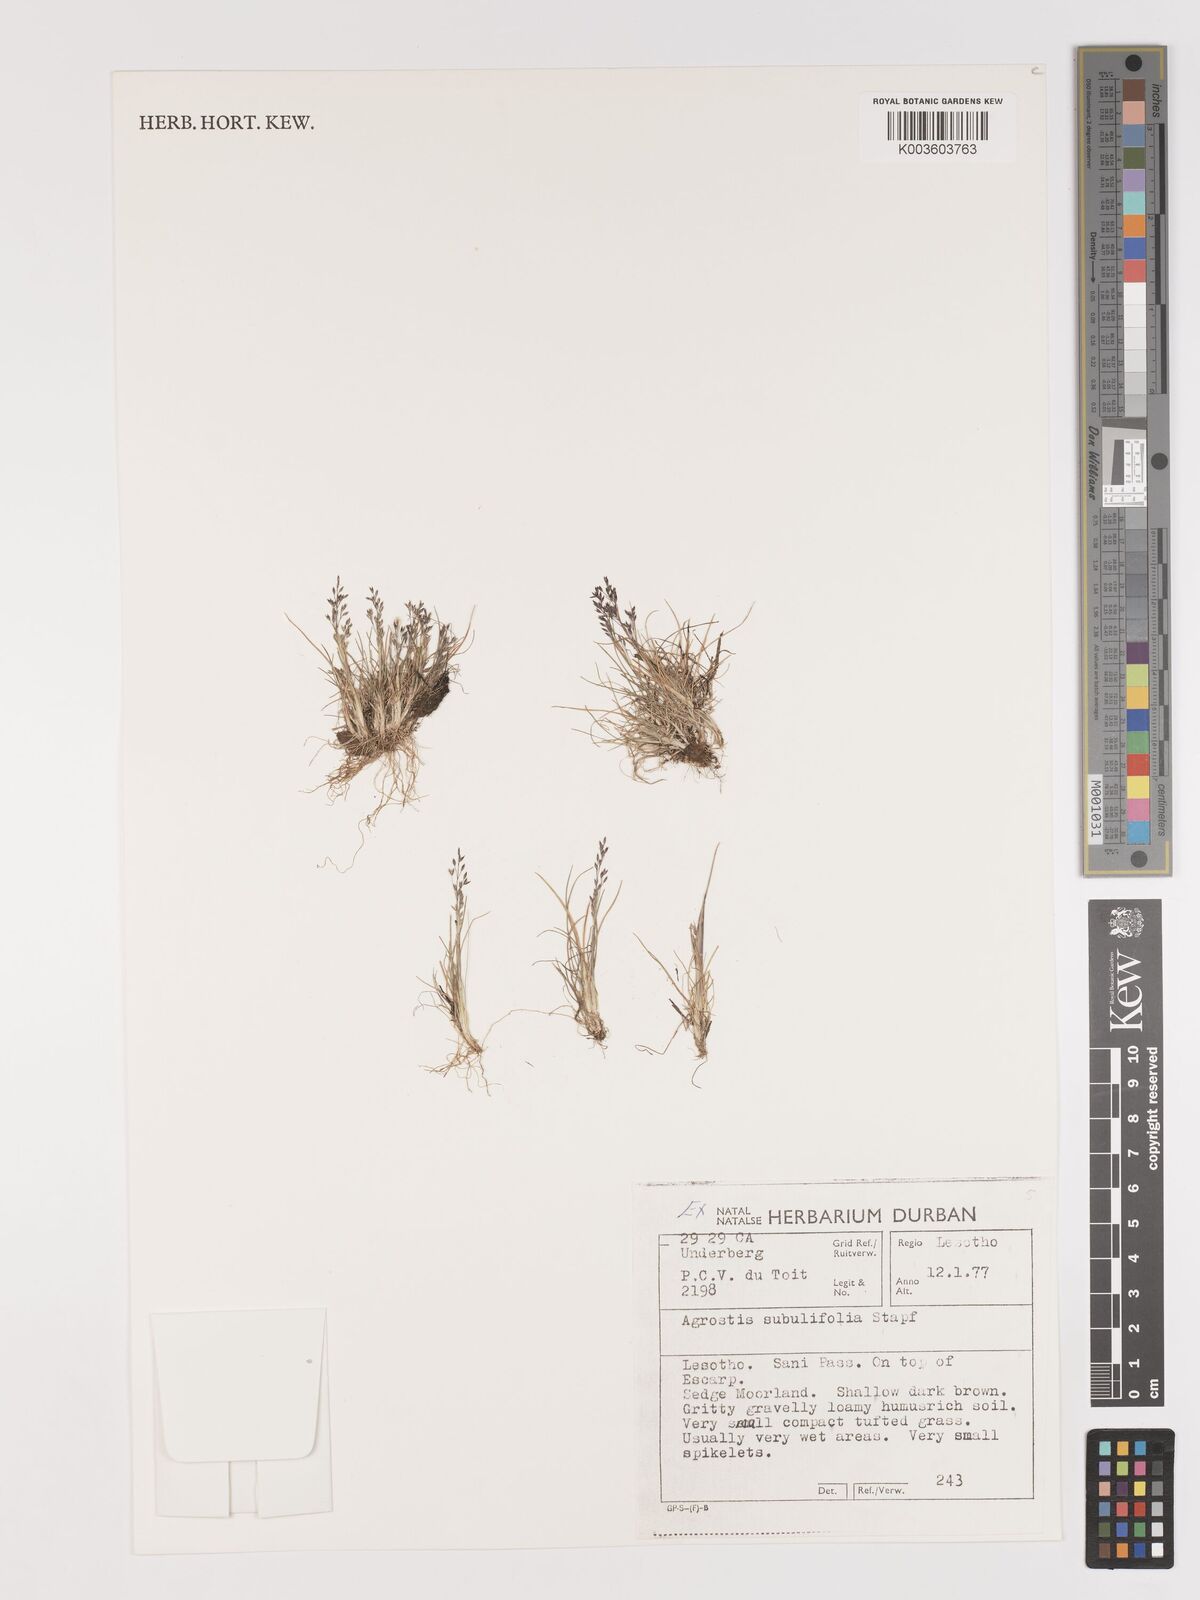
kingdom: Plantae
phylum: Tracheophyta
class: Liliopsida
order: Poales
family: Poaceae
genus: Agrostis
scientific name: Agrostis subulifolia
